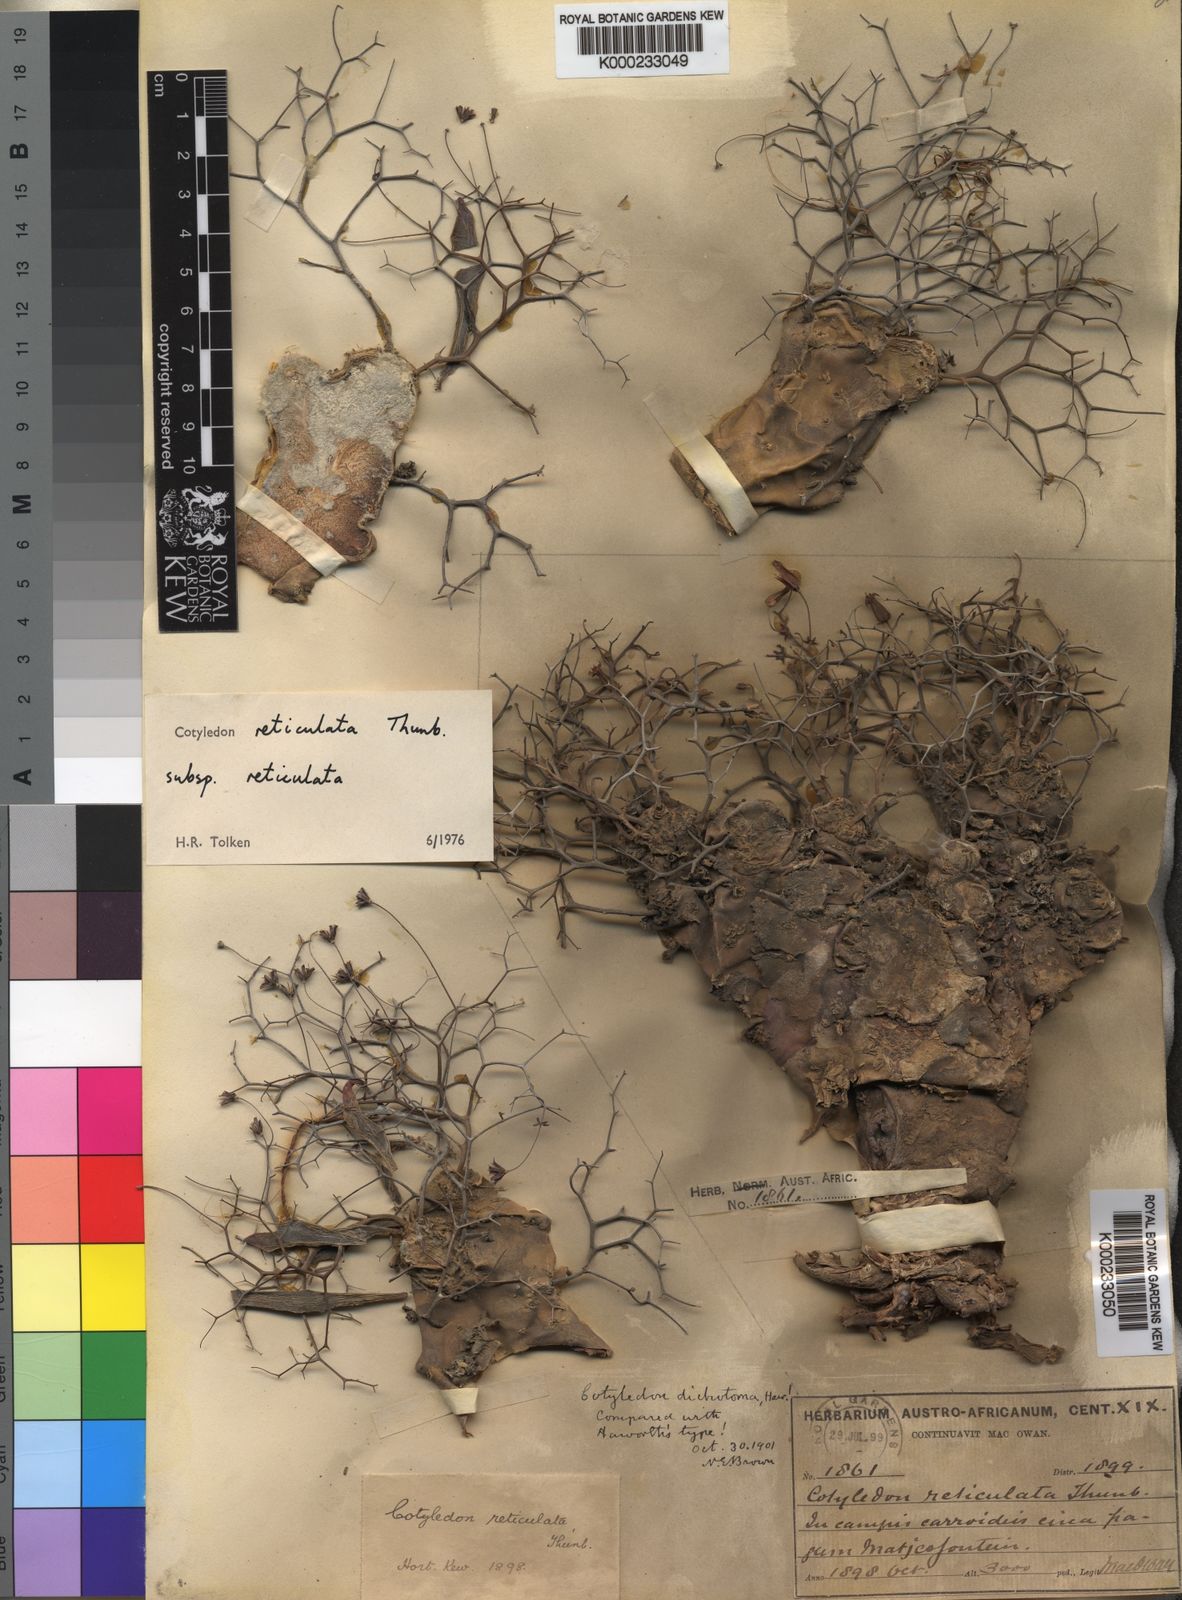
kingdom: Plantae
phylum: Tracheophyta
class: Magnoliopsida
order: Saxifragales
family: Crassulaceae
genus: Tylecodon
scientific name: Tylecodon reticulatus
